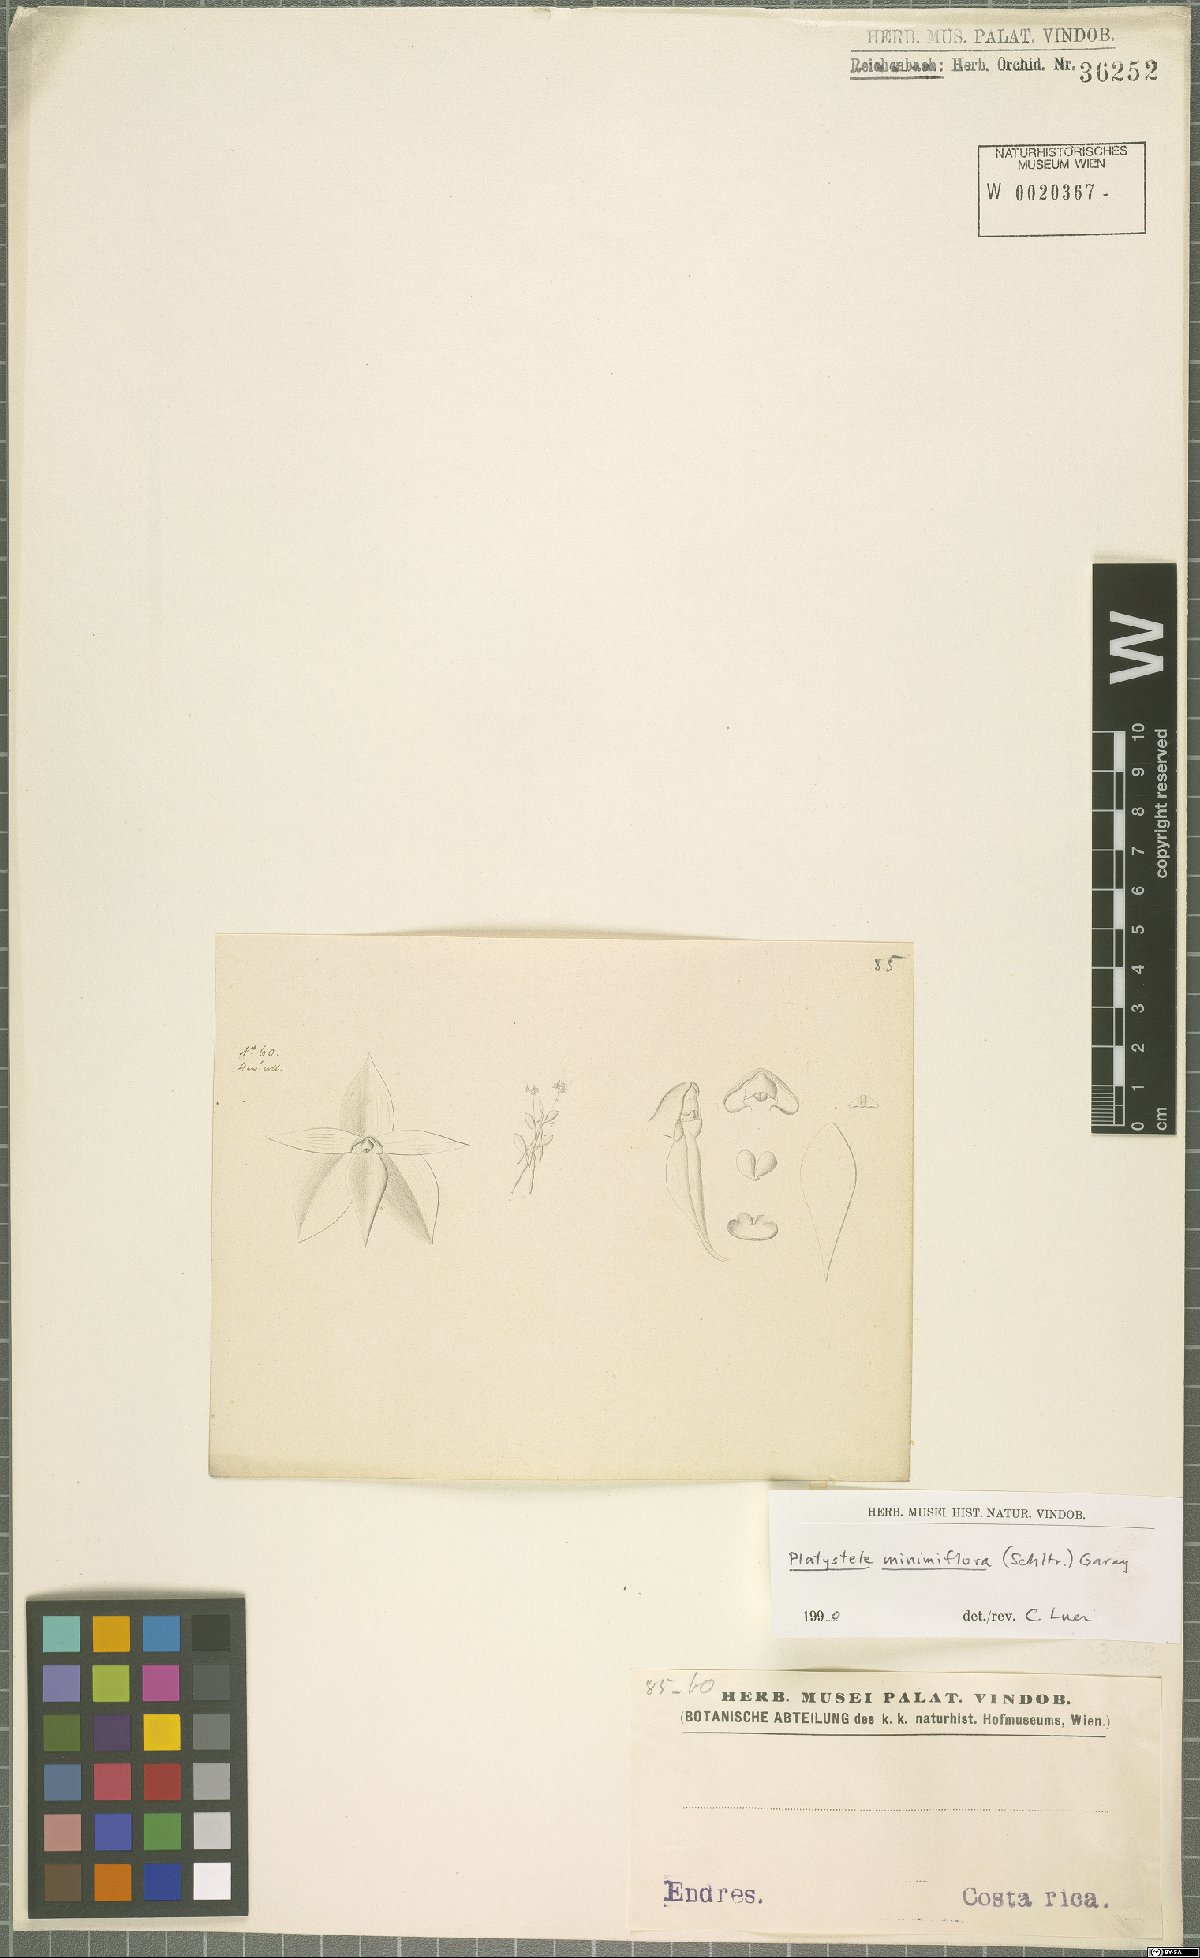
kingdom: Plantae
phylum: Tracheophyta
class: Liliopsida
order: Asparagales
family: Orchidaceae
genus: Platystele
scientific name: Platystele minimiflora
